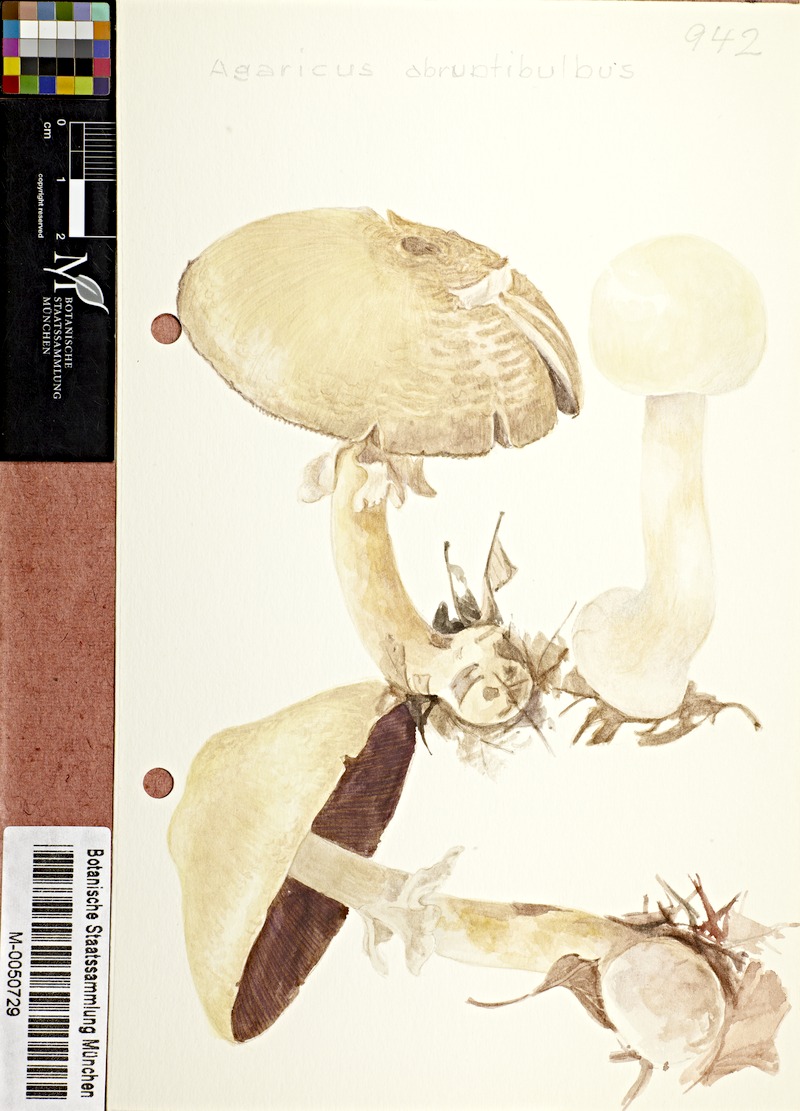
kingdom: Fungi
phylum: Basidiomycota
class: Agaricomycetes
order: Agaricales
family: Agaricaceae
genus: Agaricus
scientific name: Agaricus abruptibulbus
